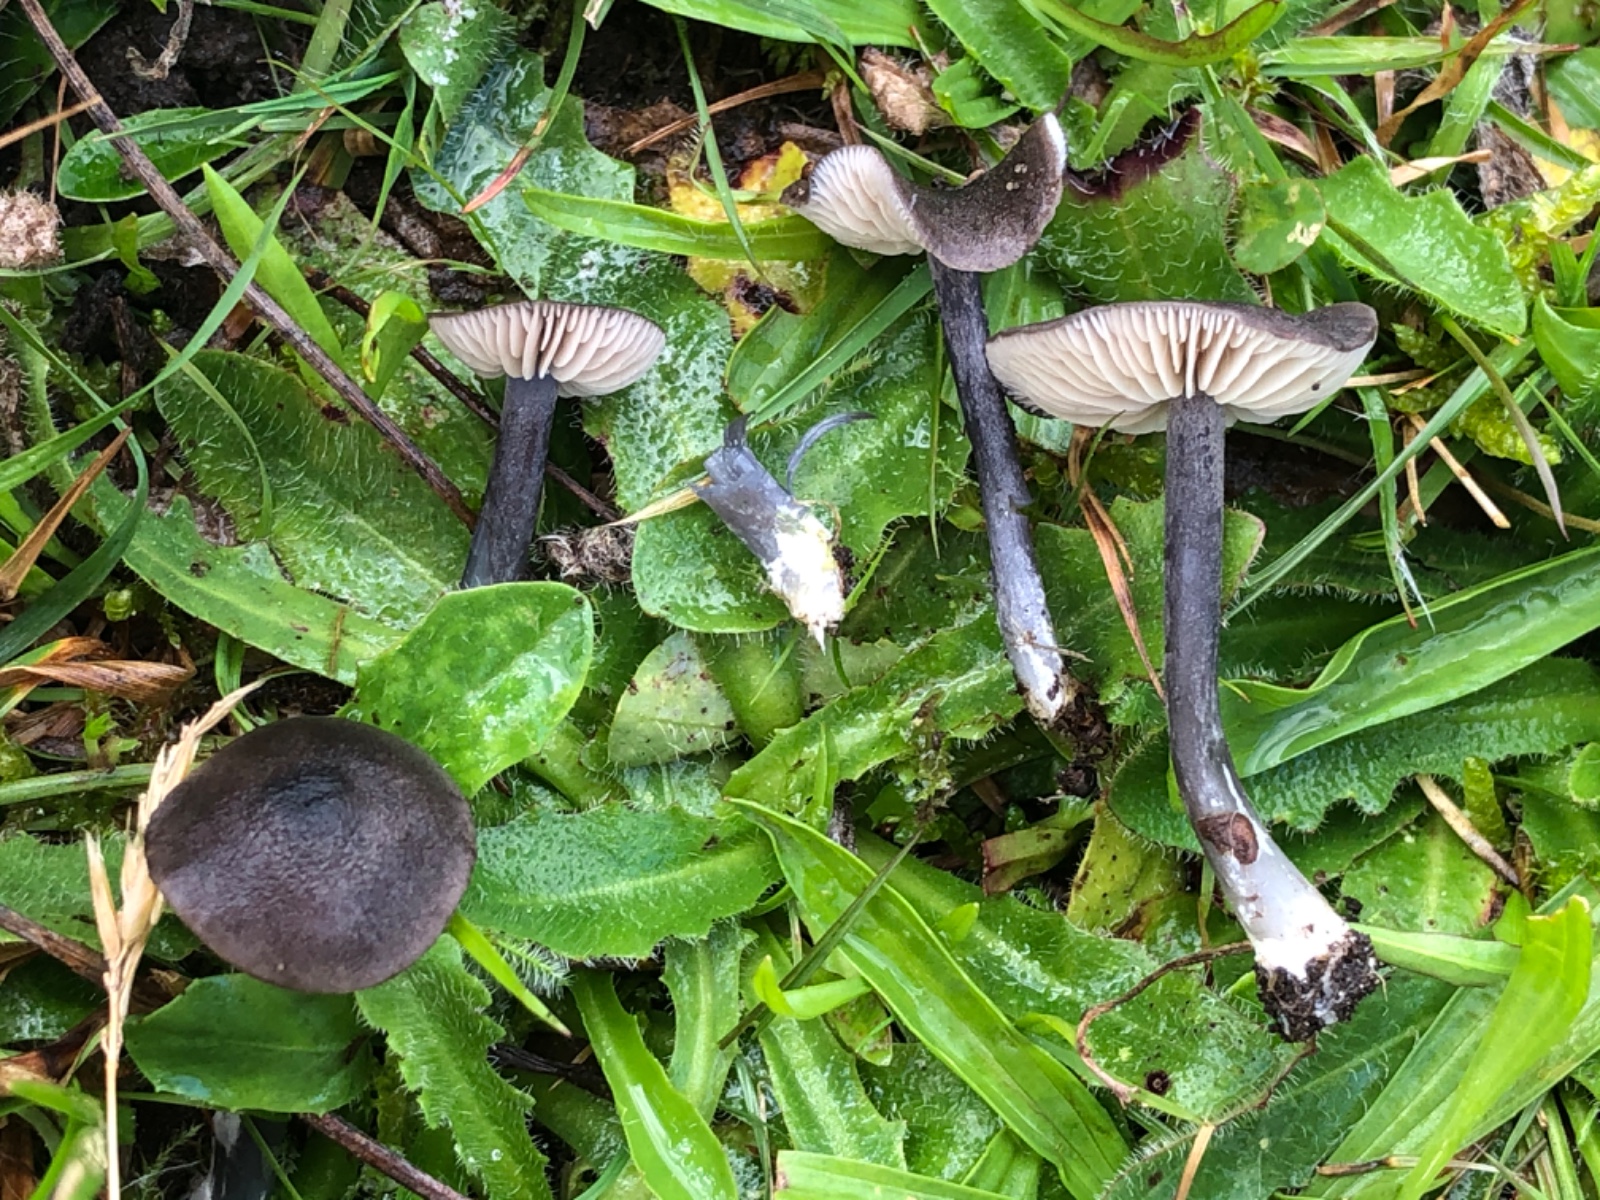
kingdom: Fungi
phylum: Basidiomycota
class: Agaricomycetes
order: Agaricales
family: Entolomataceae
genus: Entoloma
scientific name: Entoloma atrocoeruleum
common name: sortblå rødblad
